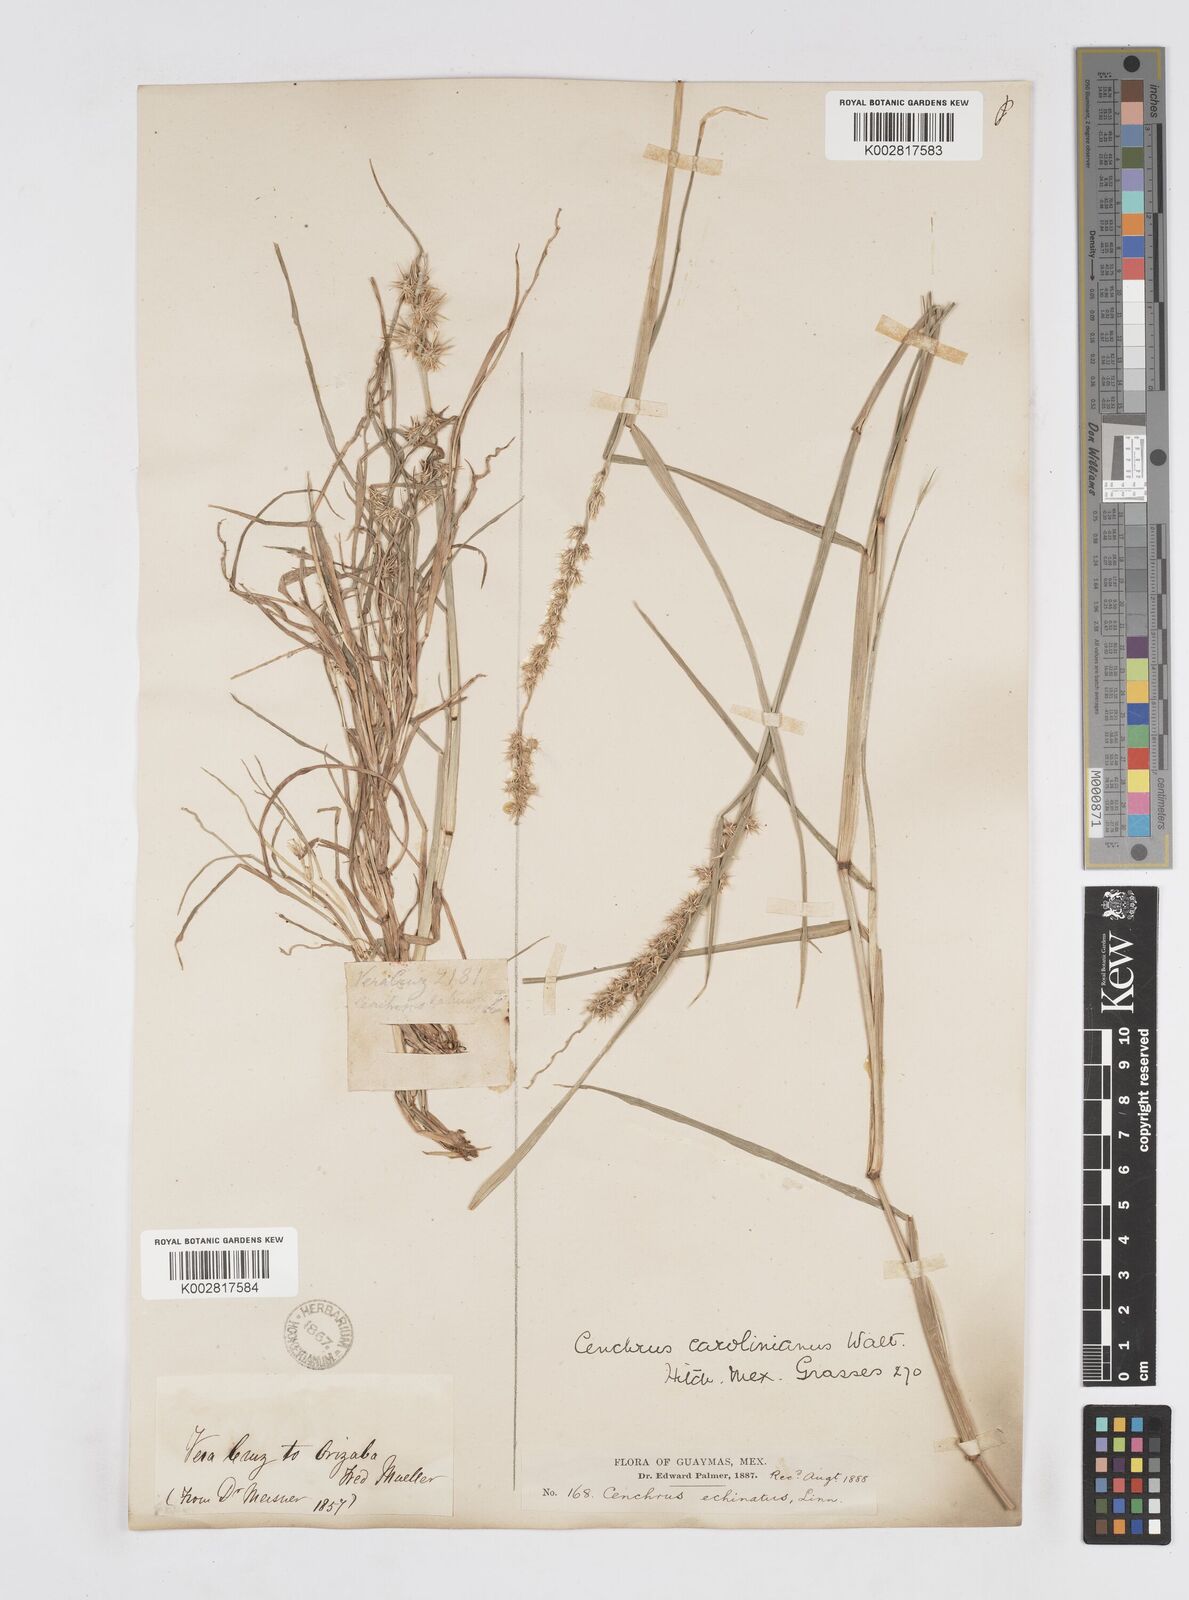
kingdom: Plantae
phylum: Tracheophyta
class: Liliopsida
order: Poales
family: Poaceae
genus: Cenchrus
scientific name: Cenchrus spinifex
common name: Coast sandbur
